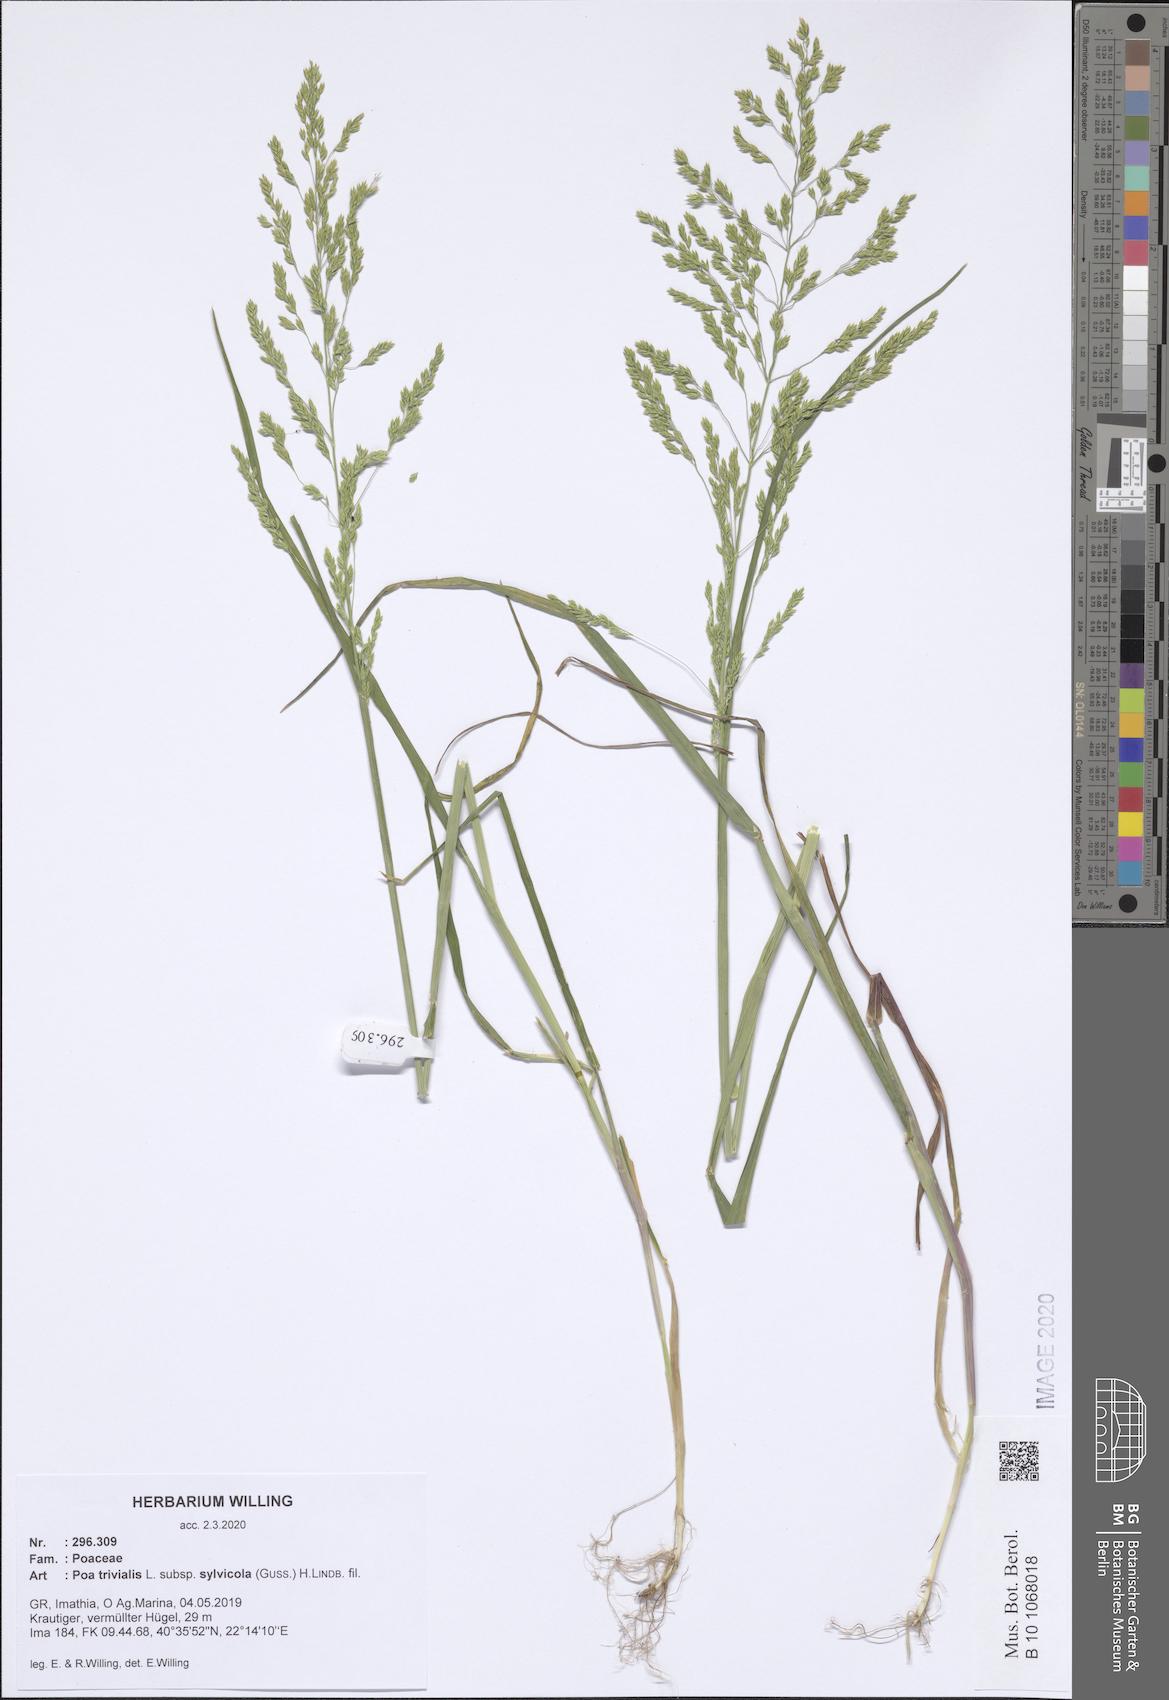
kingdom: Plantae
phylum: Tracheophyta
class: Liliopsida
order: Poales
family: Poaceae
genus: Poa
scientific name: Poa trivialis
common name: Rough bluegrass
